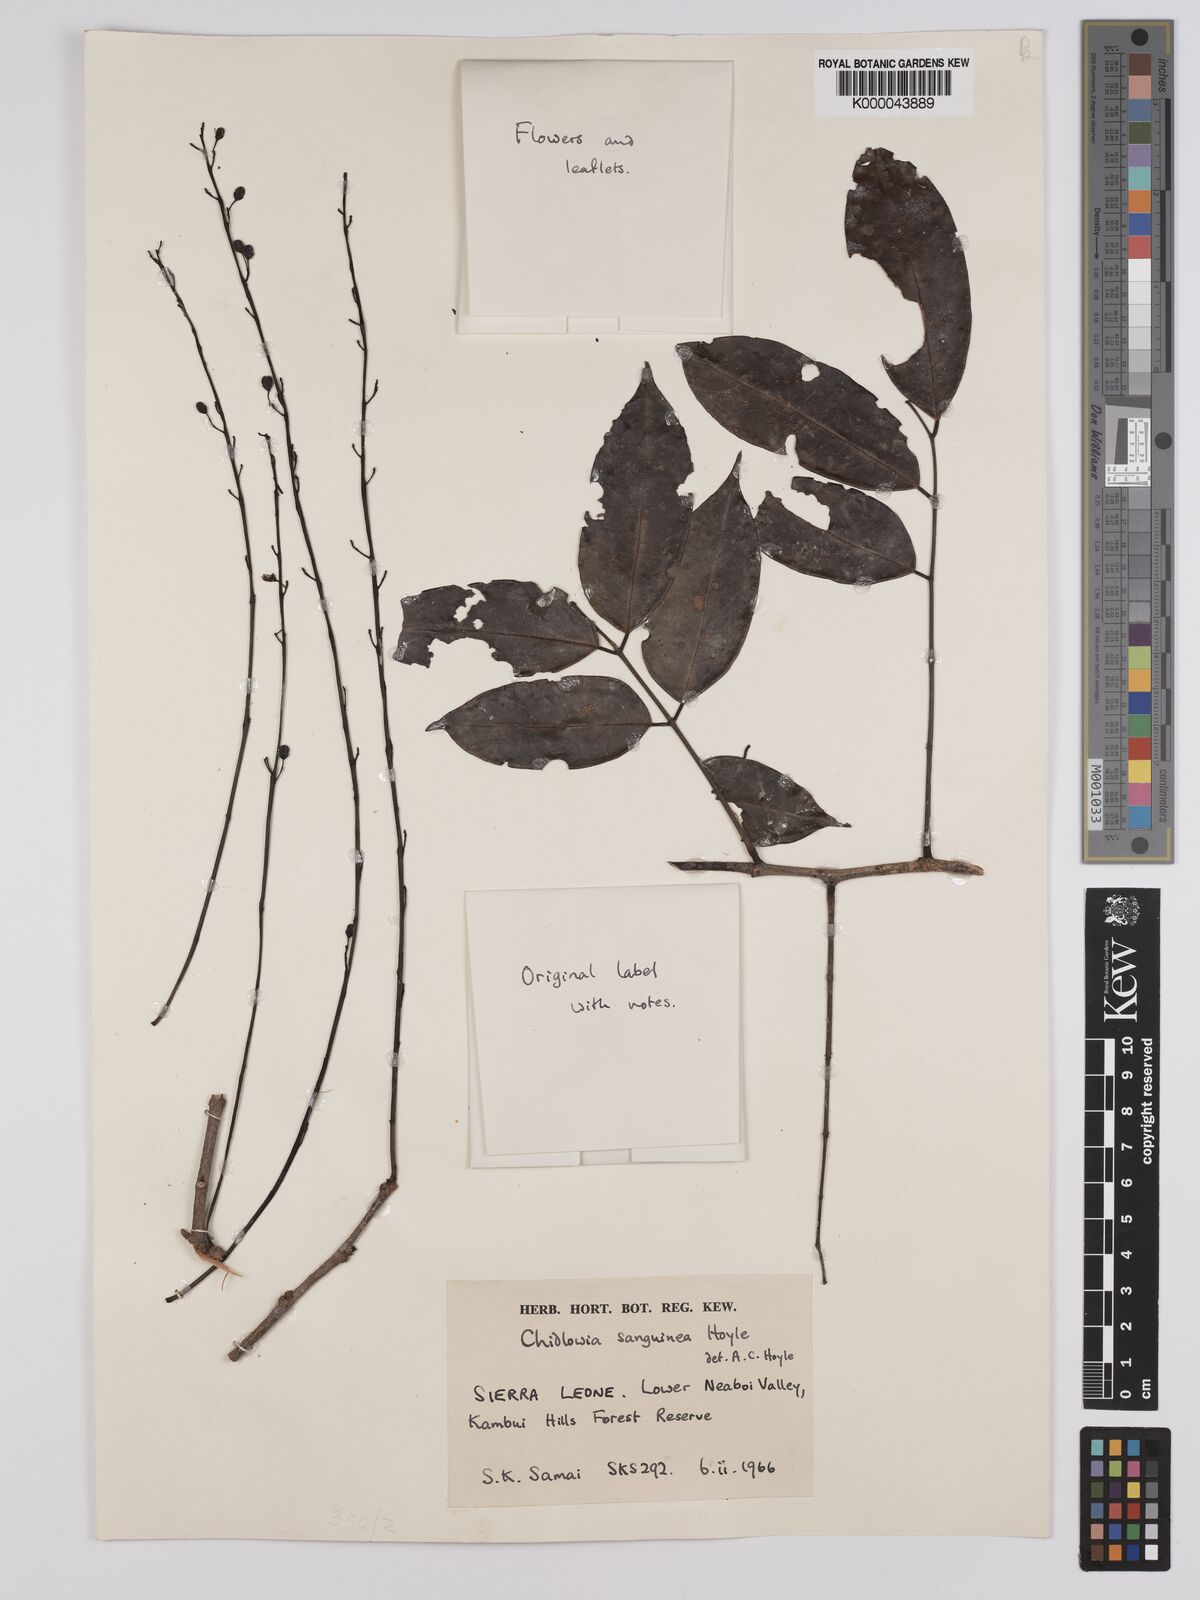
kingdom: Plantae
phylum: Tracheophyta
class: Magnoliopsida
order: Fabales
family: Fabaceae
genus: Chidlowia
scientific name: Chidlowia sanguinea
